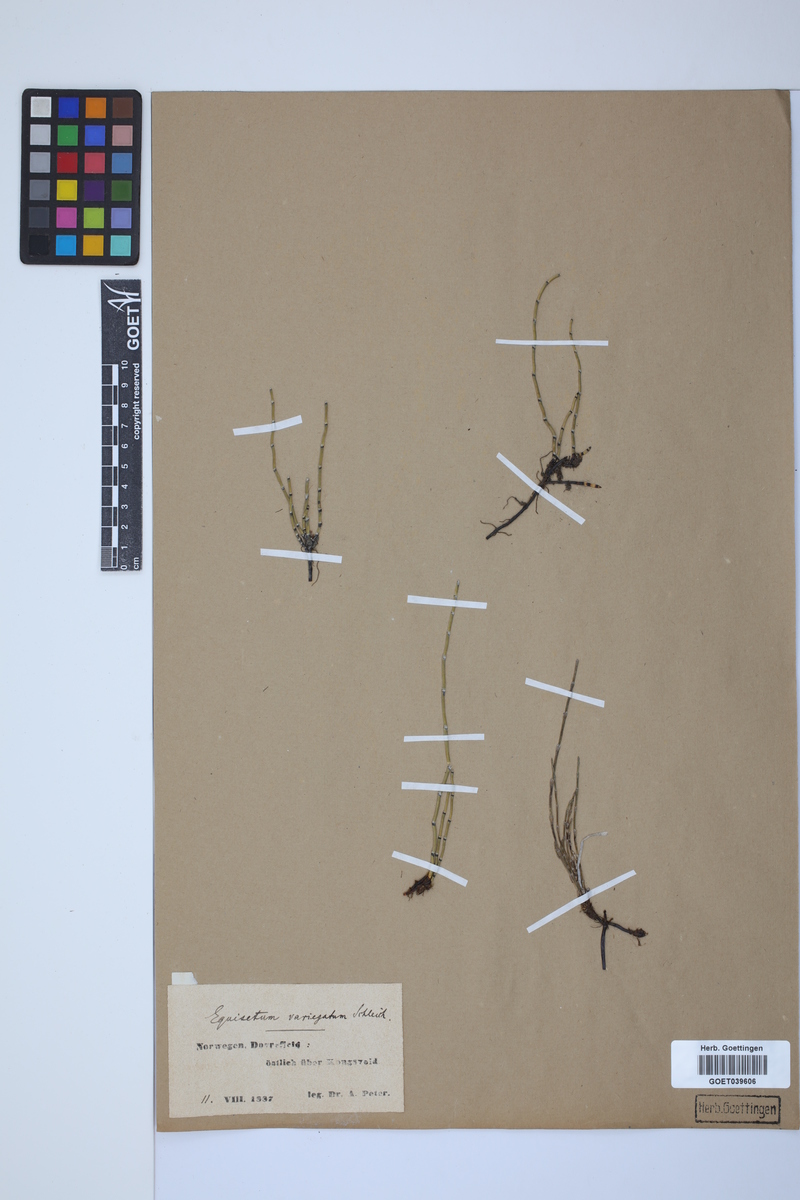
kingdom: Plantae
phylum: Tracheophyta
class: Polypodiopsida
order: Equisetales
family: Equisetaceae
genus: Equisetum
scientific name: Equisetum variegatum
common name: Variegated horsetail
